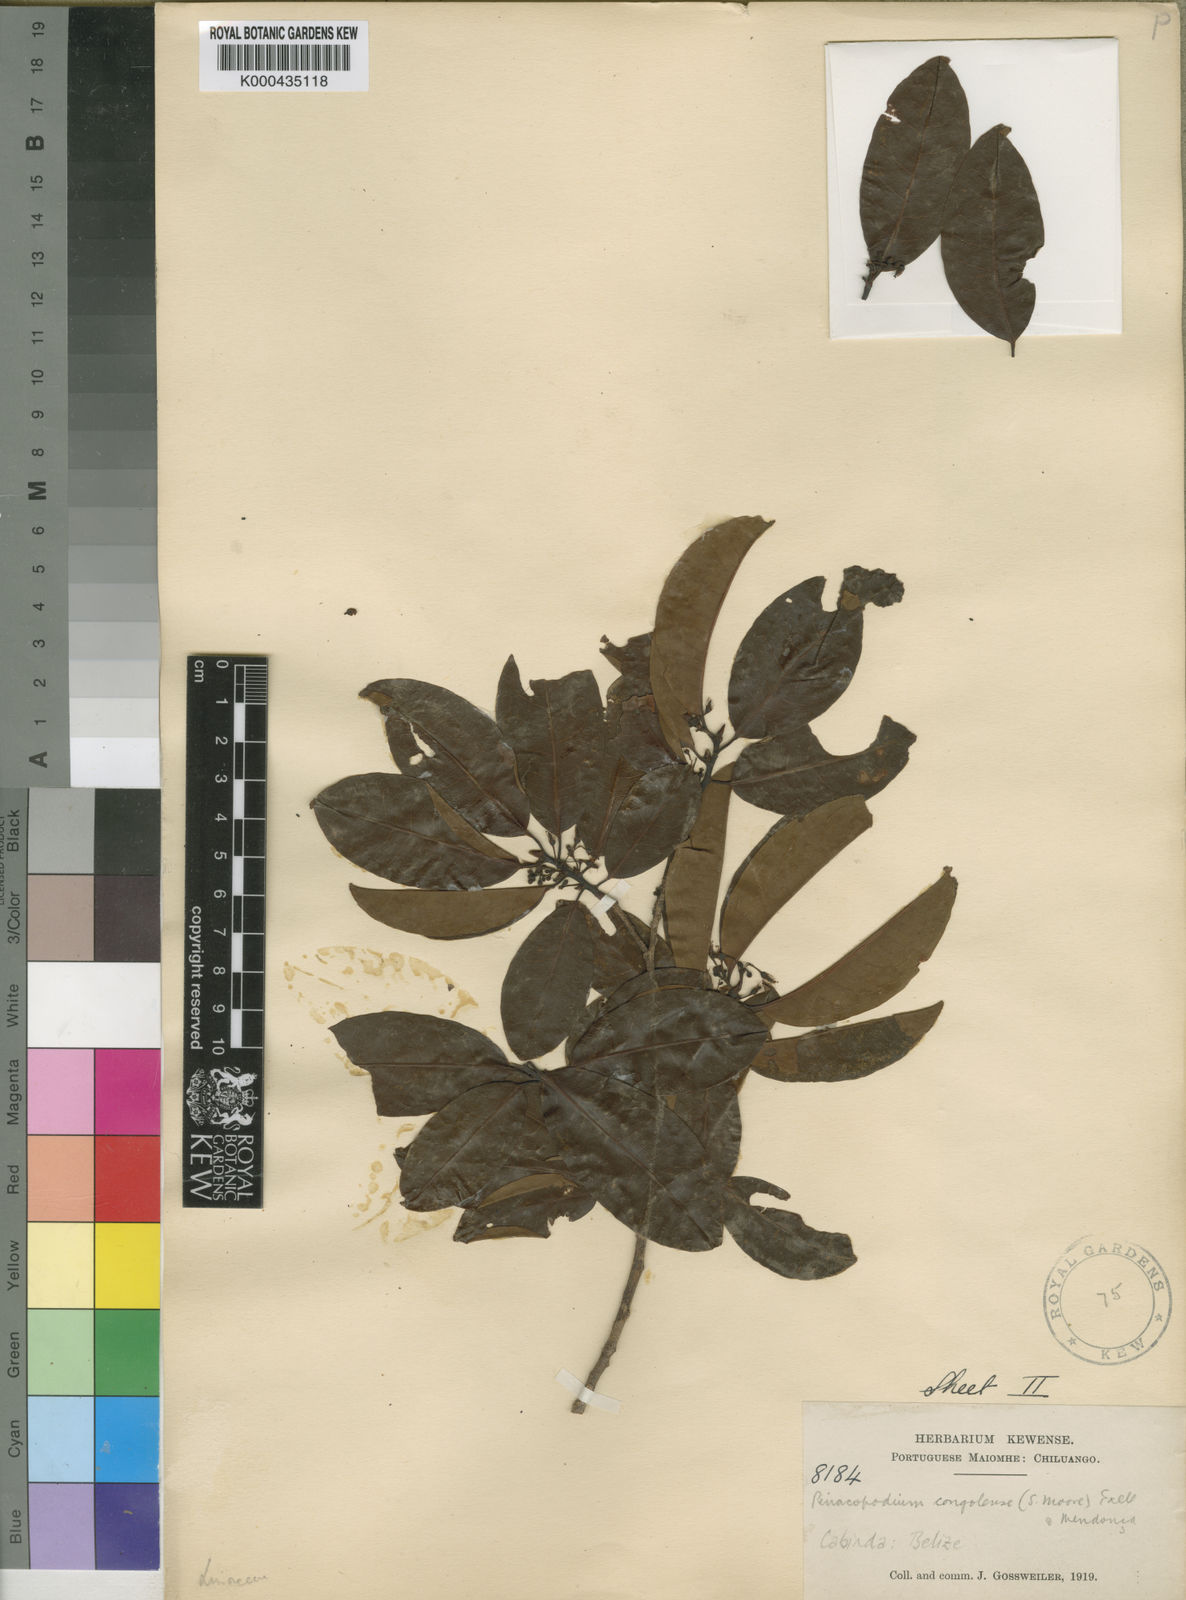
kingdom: Plantae
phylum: Tracheophyta
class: Magnoliopsida
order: Malpighiales
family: Erythroxylaceae
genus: Pinacopodium
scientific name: Pinacopodium congolense
